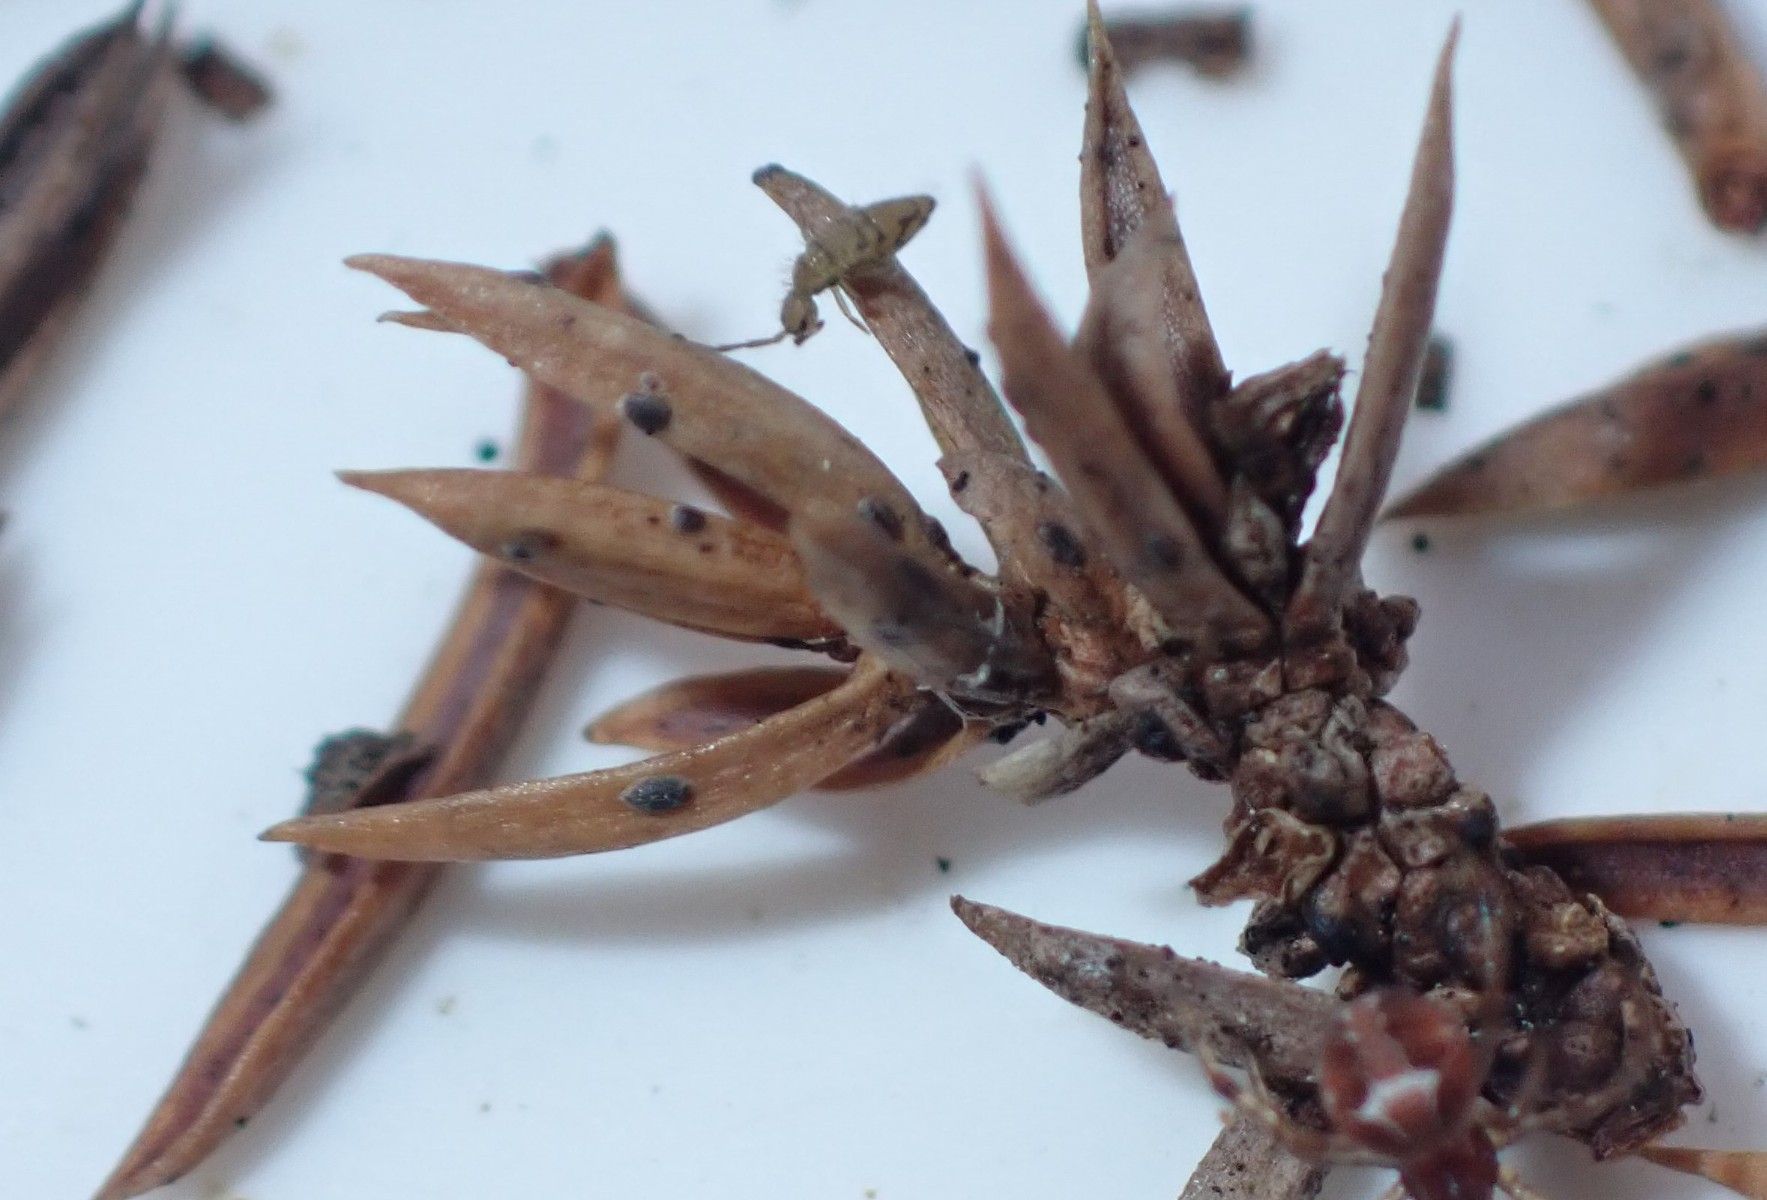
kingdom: Fungi
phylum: Ascomycota
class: Leotiomycetes
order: Rhytismatales
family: Rhytismataceae
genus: Lophodermium
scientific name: Lophodermium juniperinum
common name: ene-fureplet
